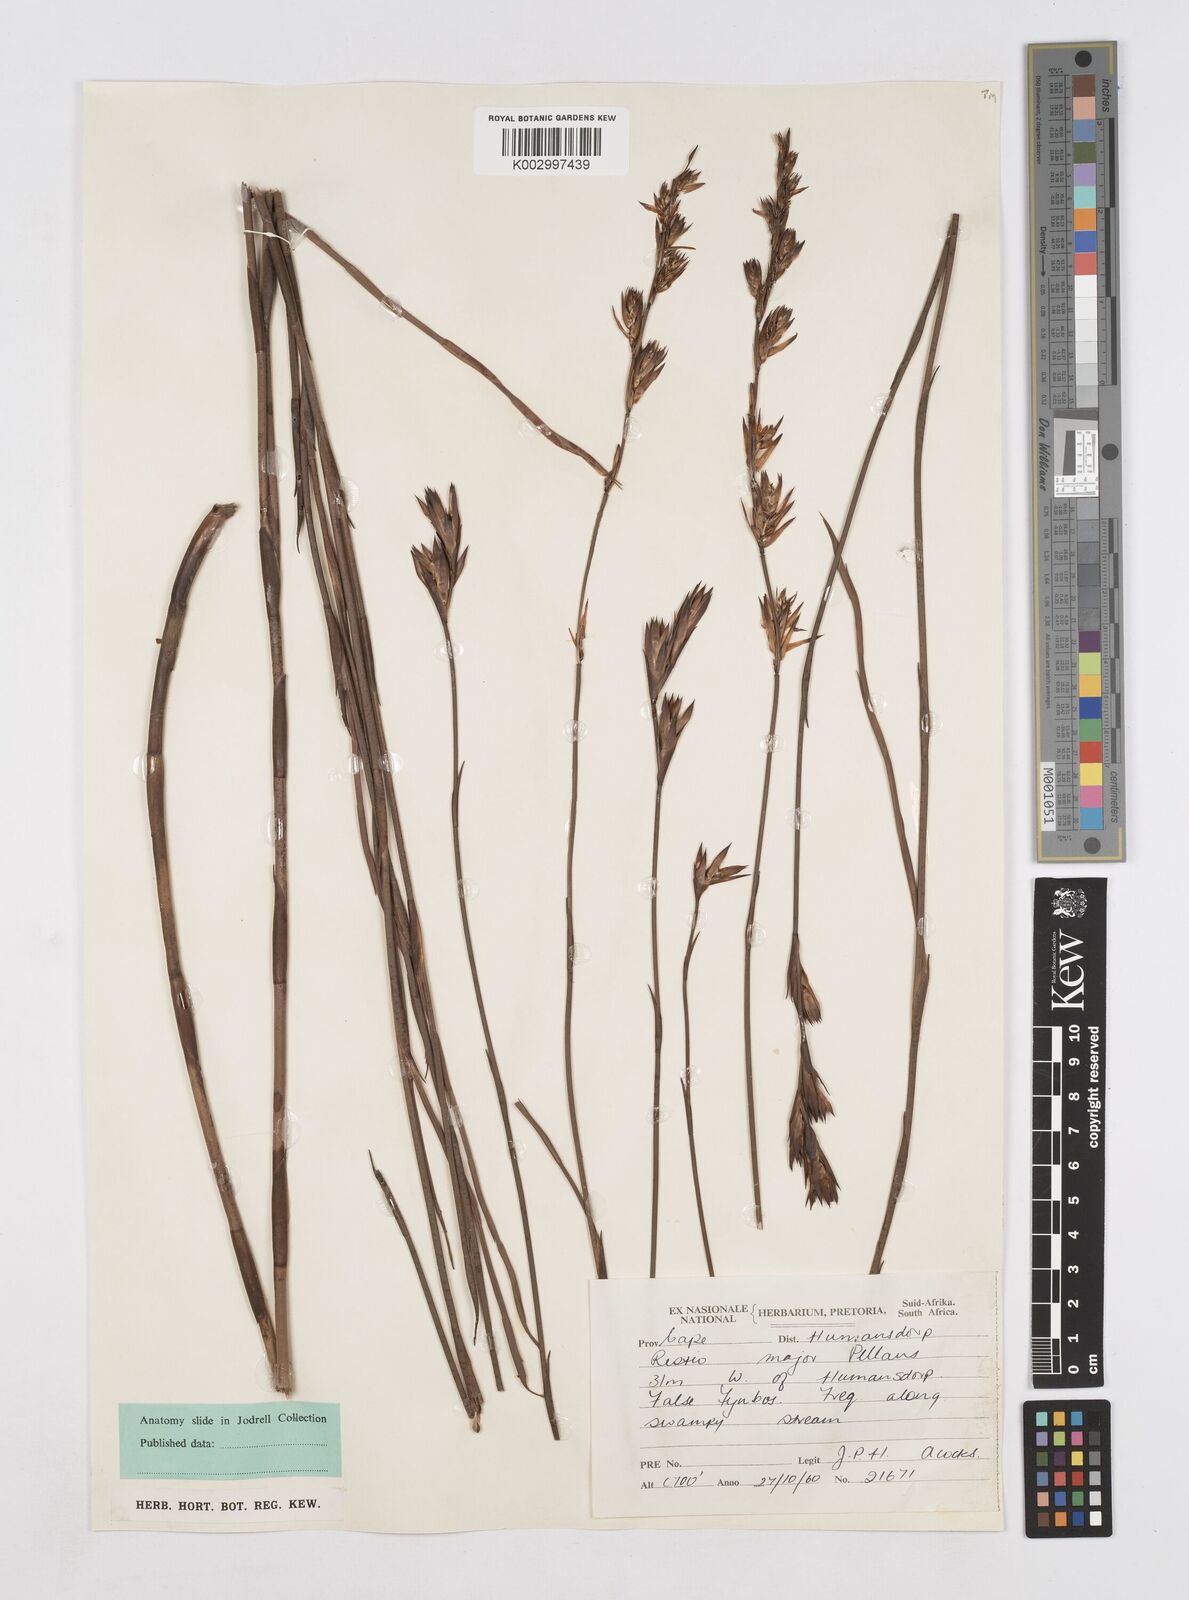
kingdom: Plantae
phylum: Tracheophyta
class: Liliopsida
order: Poales
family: Restionaceae
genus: Platycaulos
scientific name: Platycaulos major
